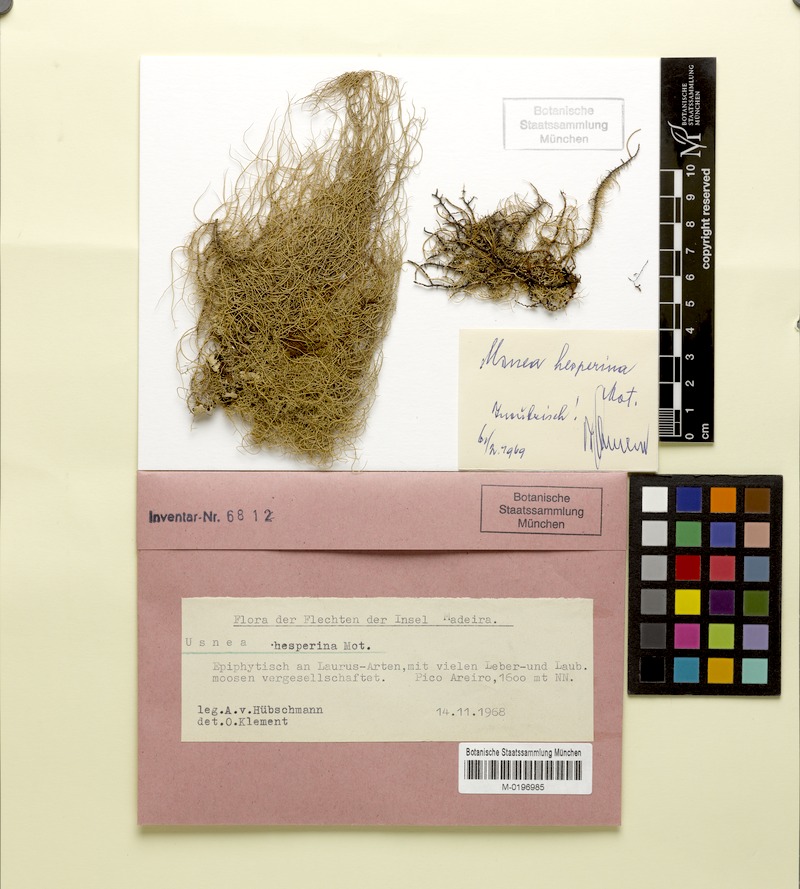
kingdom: Fungi
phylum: Ascomycota
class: Lecanoromycetes
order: Lecanorales
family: Parmeliaceae
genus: Usnea
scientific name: Usnea subgracilis
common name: Beard lichen
